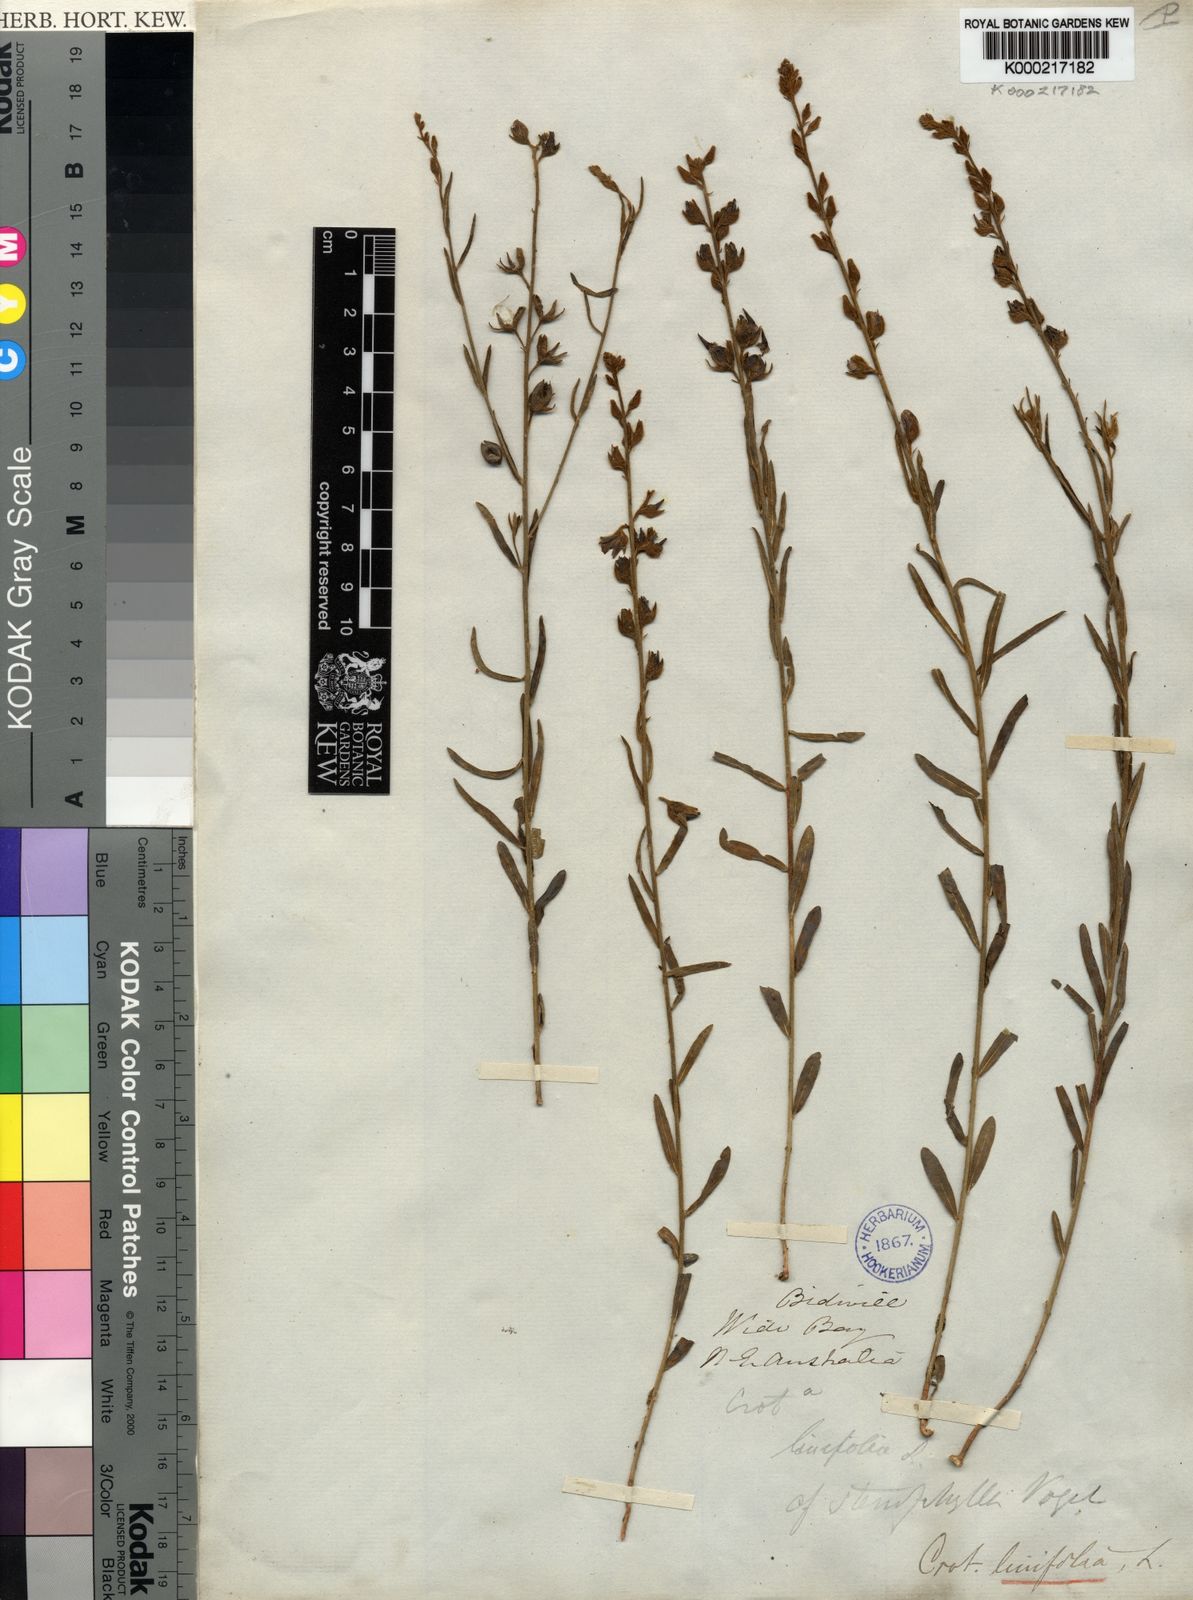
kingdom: Plantae
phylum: Tracheophyta
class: Magnoliopsida
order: Fabales
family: Fabaceae
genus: Crotalaria
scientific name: Crotalaria linifolia
